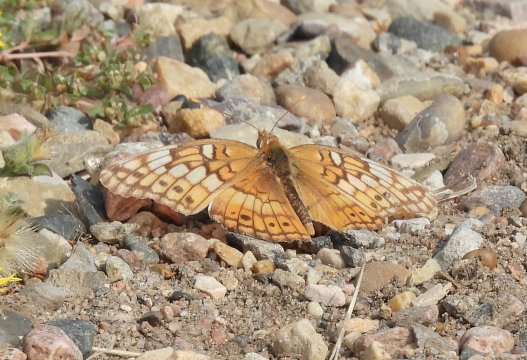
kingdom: Animalia
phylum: Arthropoda
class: Insecta
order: Lepidoptera
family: Nymphalidae
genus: Euptoieta
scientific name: Euptoieta claudia
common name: Variegated Fritillary
